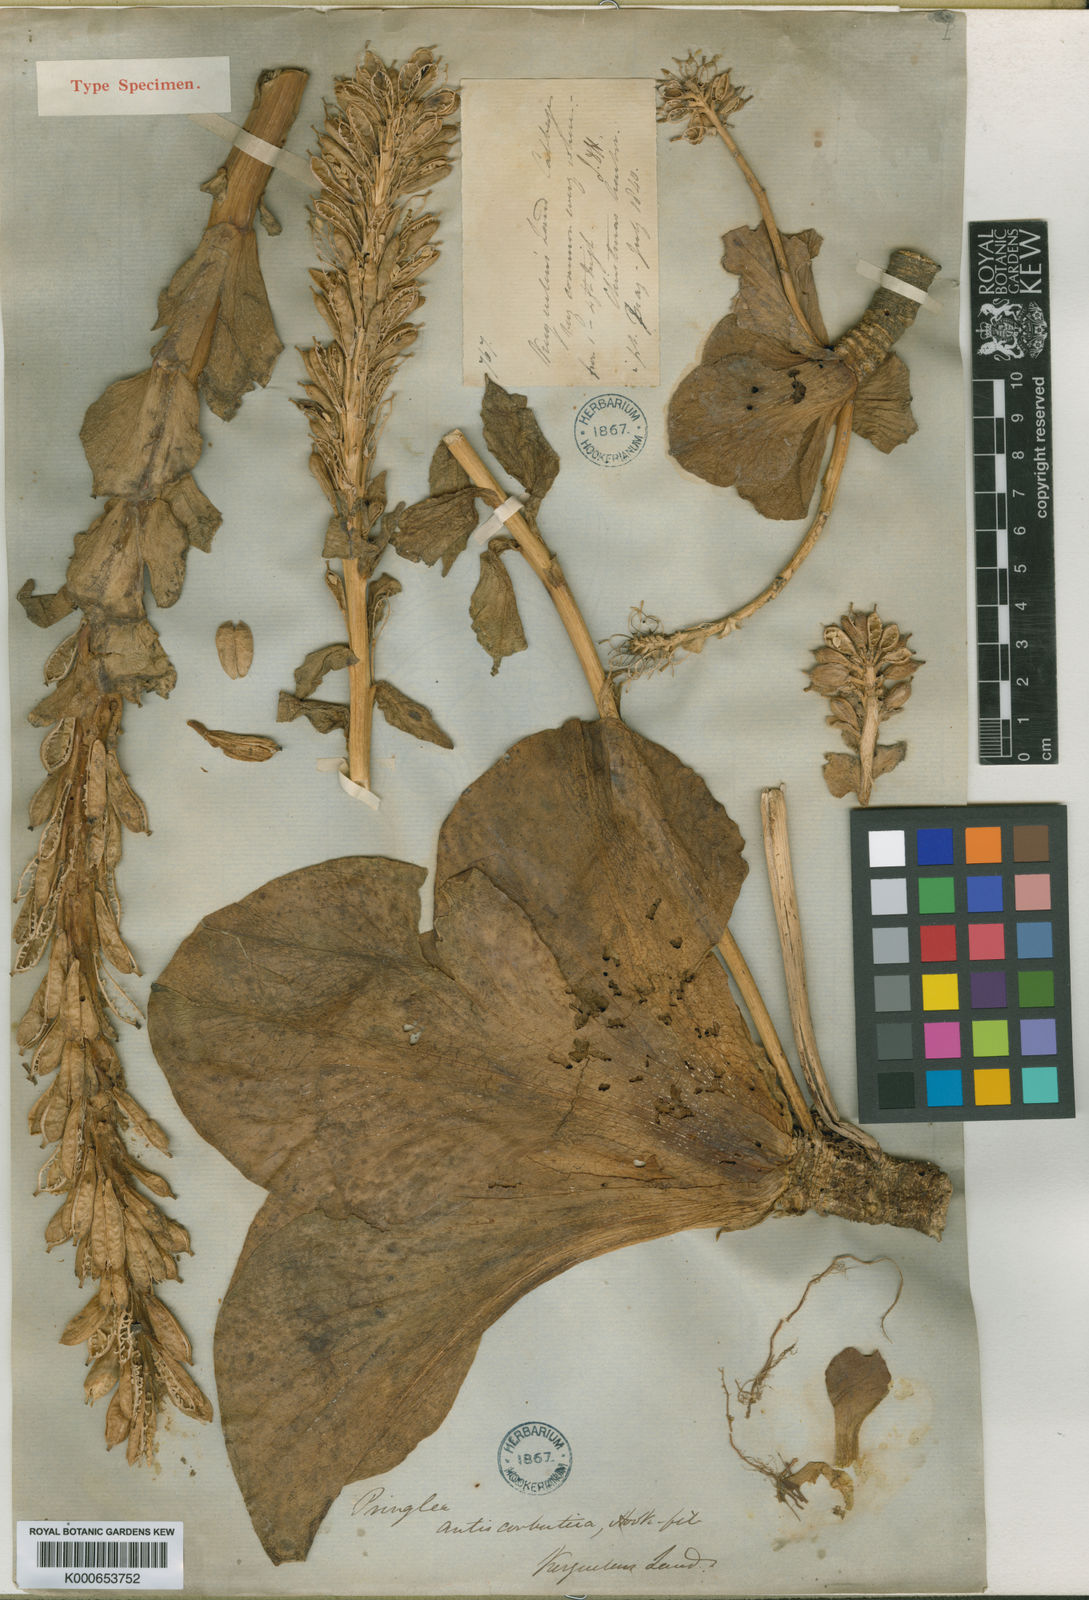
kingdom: Plantae
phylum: Tracheophyta
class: Magnoliopsida
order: Brassicales
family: Brassicaceae
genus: Pringlea
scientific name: Pringlea antiscorbutica
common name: Kerguelen-cabbage
